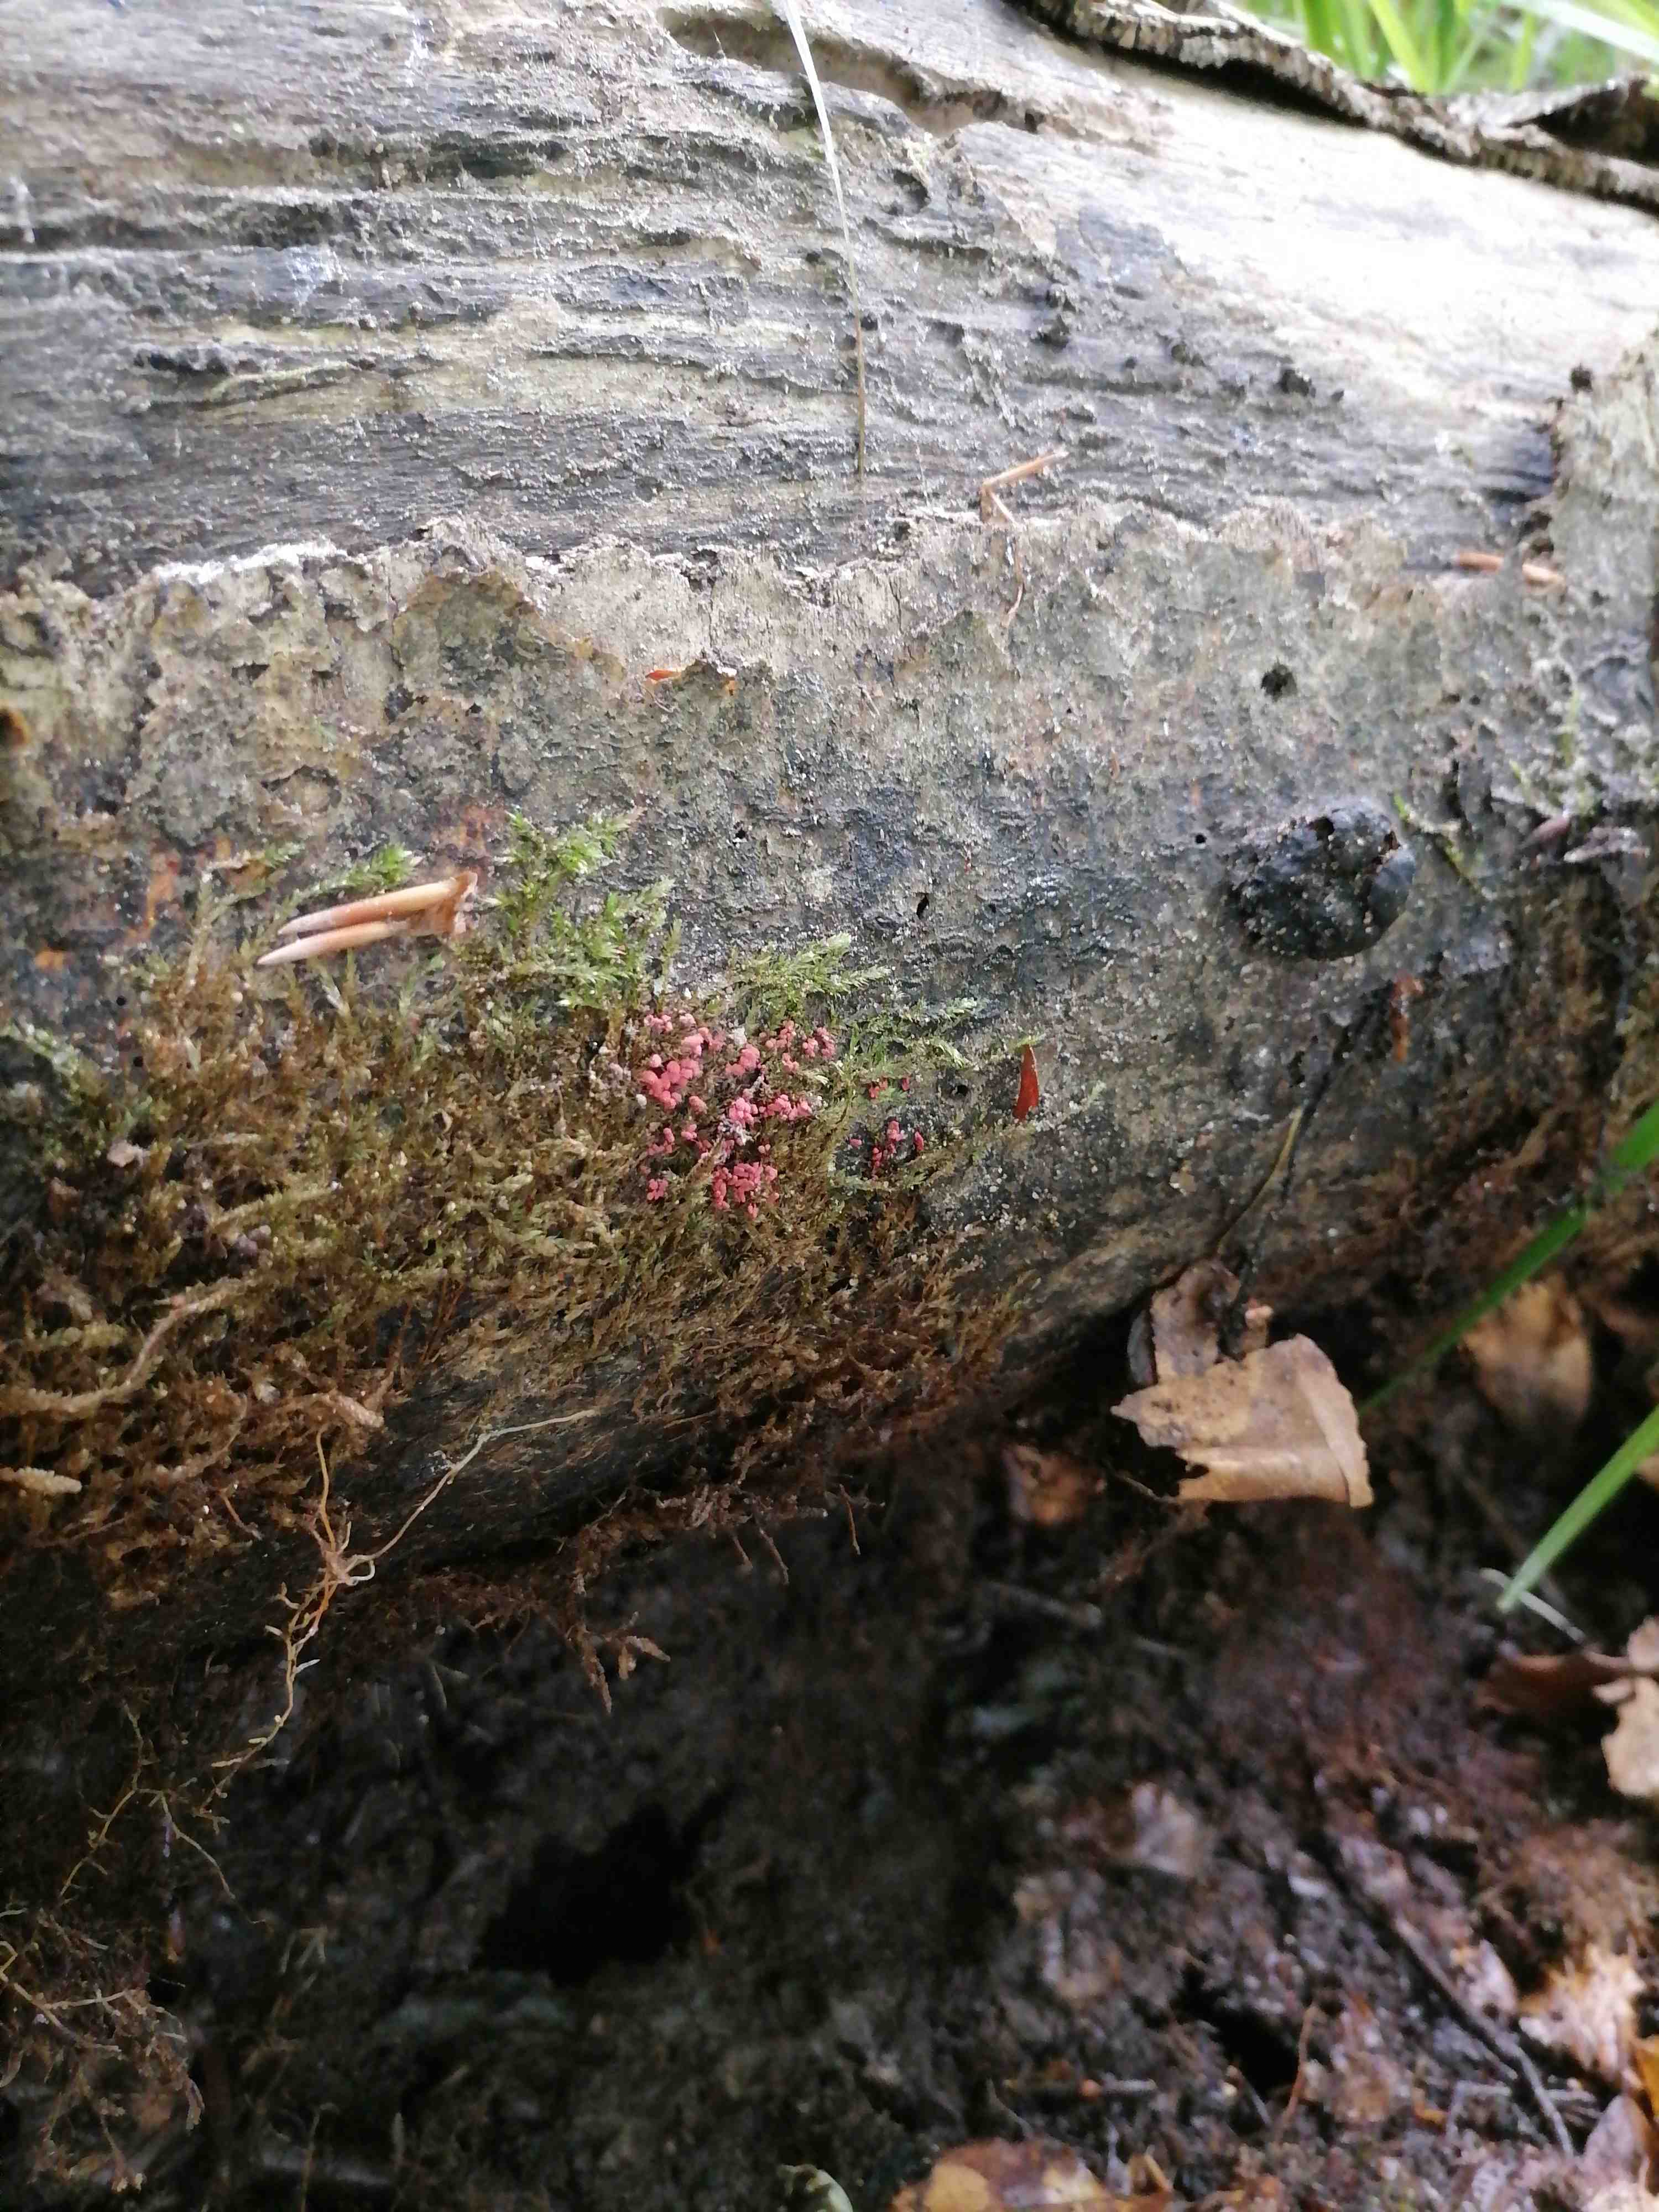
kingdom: Protozoa
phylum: Mycetozoa
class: Myxomycetes
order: Trichiales
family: Arcyriaceae
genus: Arcyria
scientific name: Arcyria denudata
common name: karminrød skålsvøb
